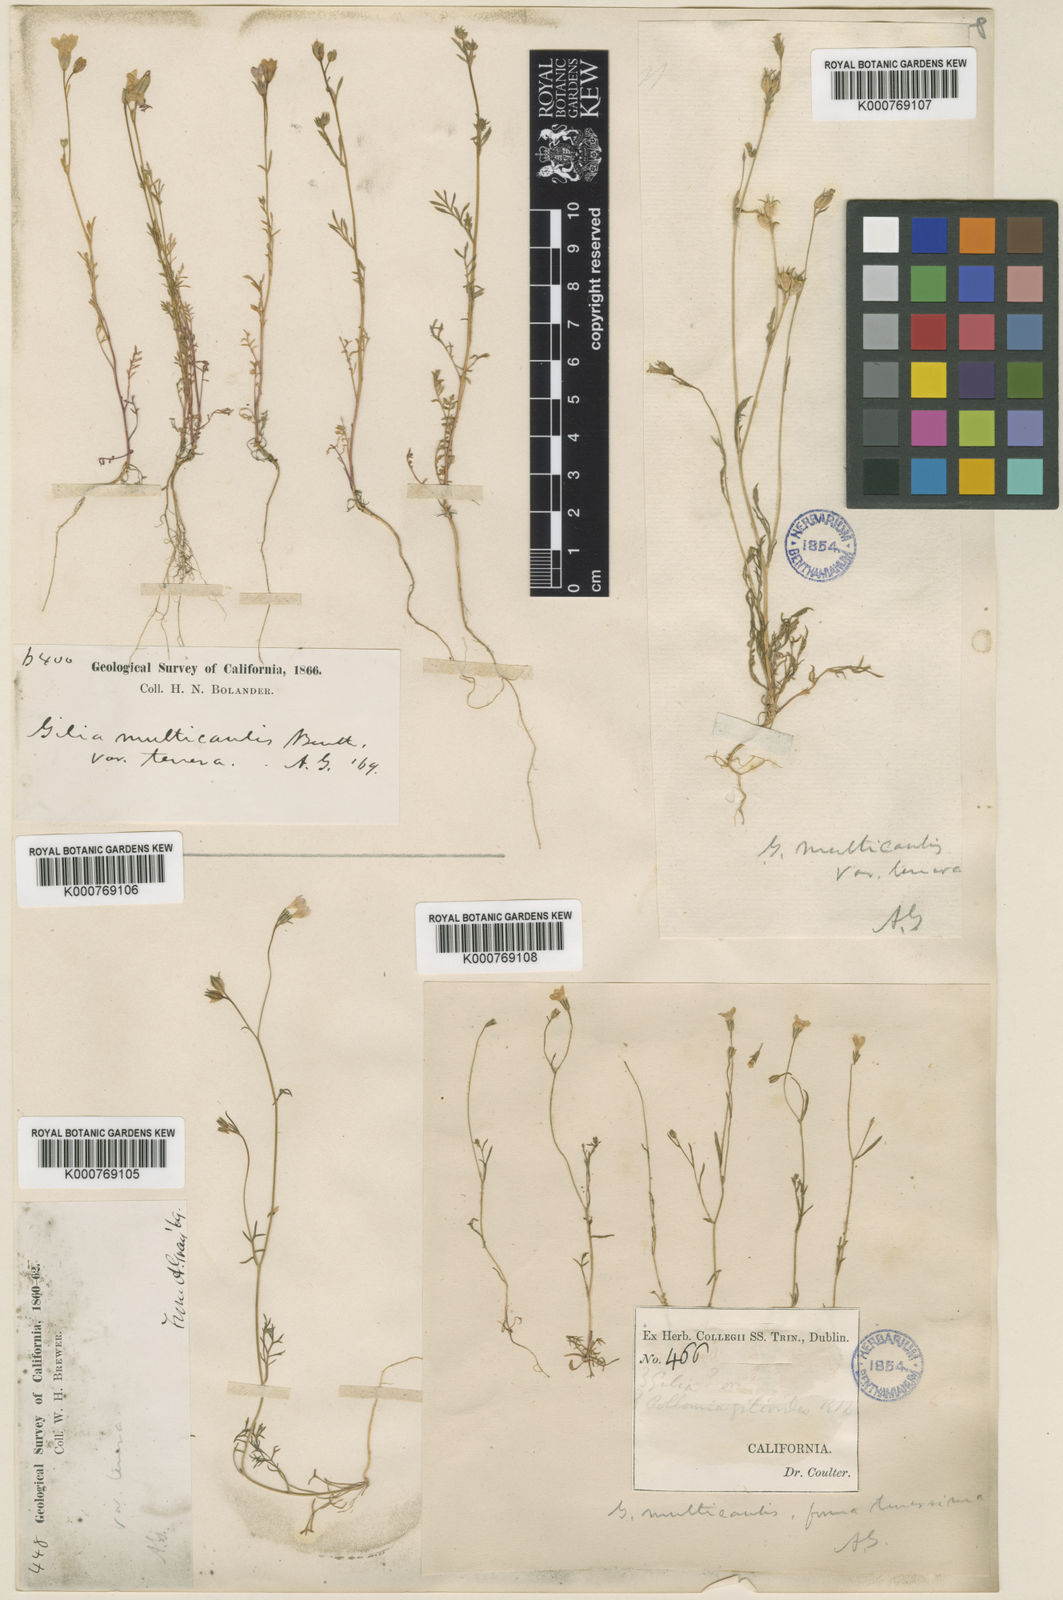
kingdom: Plantae
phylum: Tracheophyta
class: Magnoliopsida
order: Ericales
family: Polemoniaceae
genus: Gilia
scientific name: Gilia achilleifolia
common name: California gily-flower
